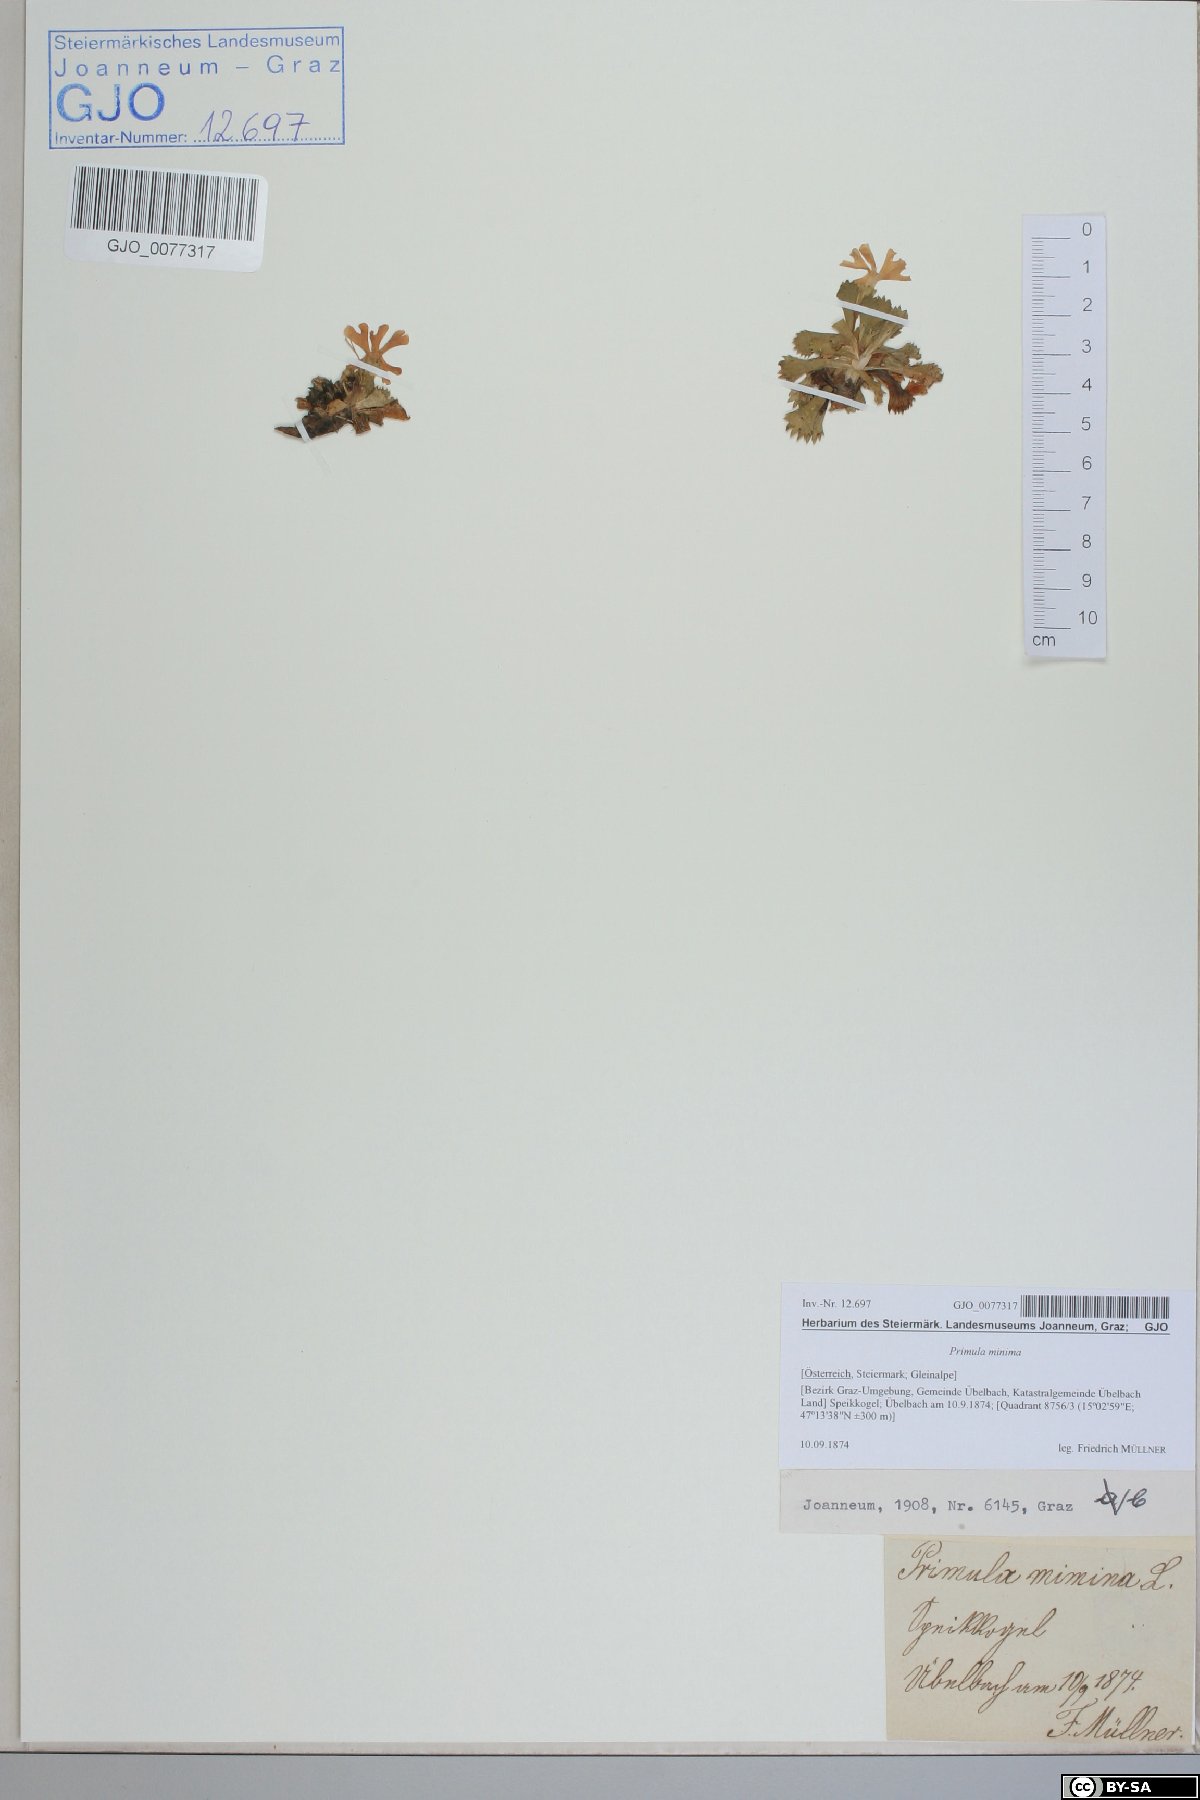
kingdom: Plantae
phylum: Tracheophyta
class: Magnoliopsida
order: Ericales
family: Primulaceae
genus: Primula
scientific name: Primula minima
